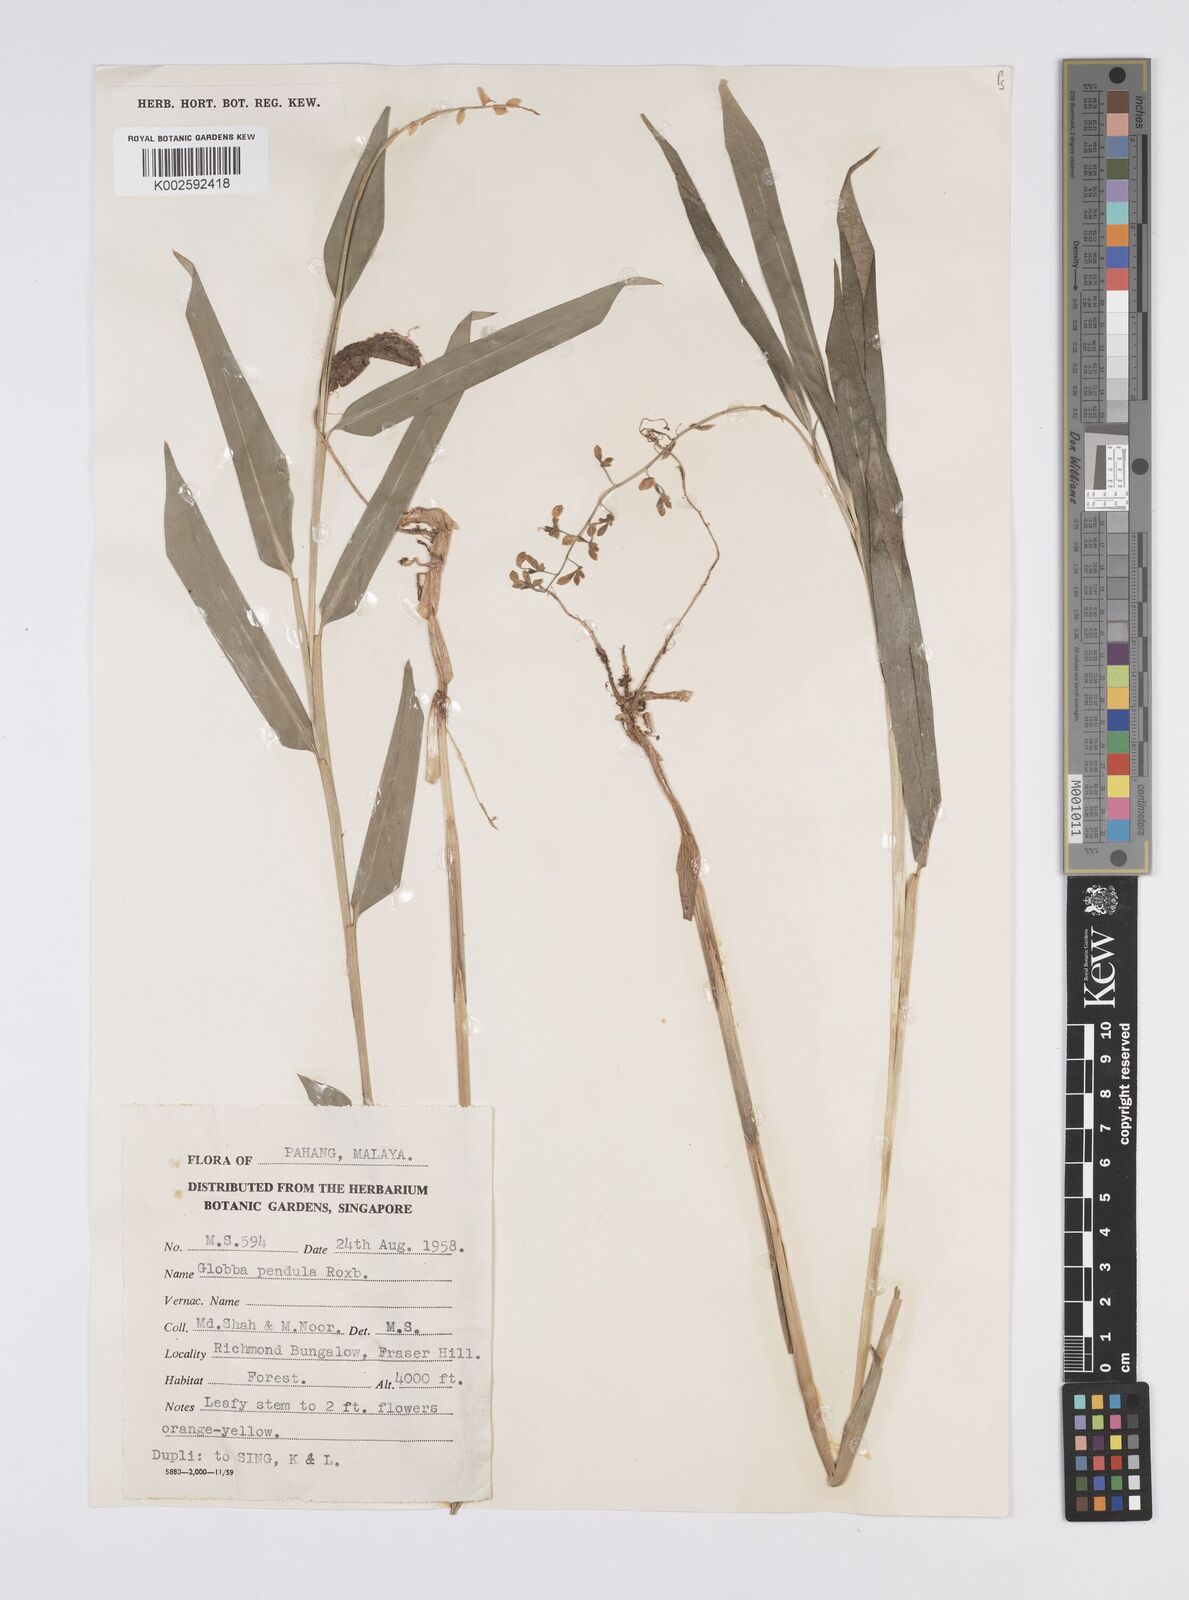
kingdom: Plantae
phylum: Tracheophyta
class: Liliopsida
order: Zingiberales
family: Zingiberaceae
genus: Globba
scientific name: Globba pendula
